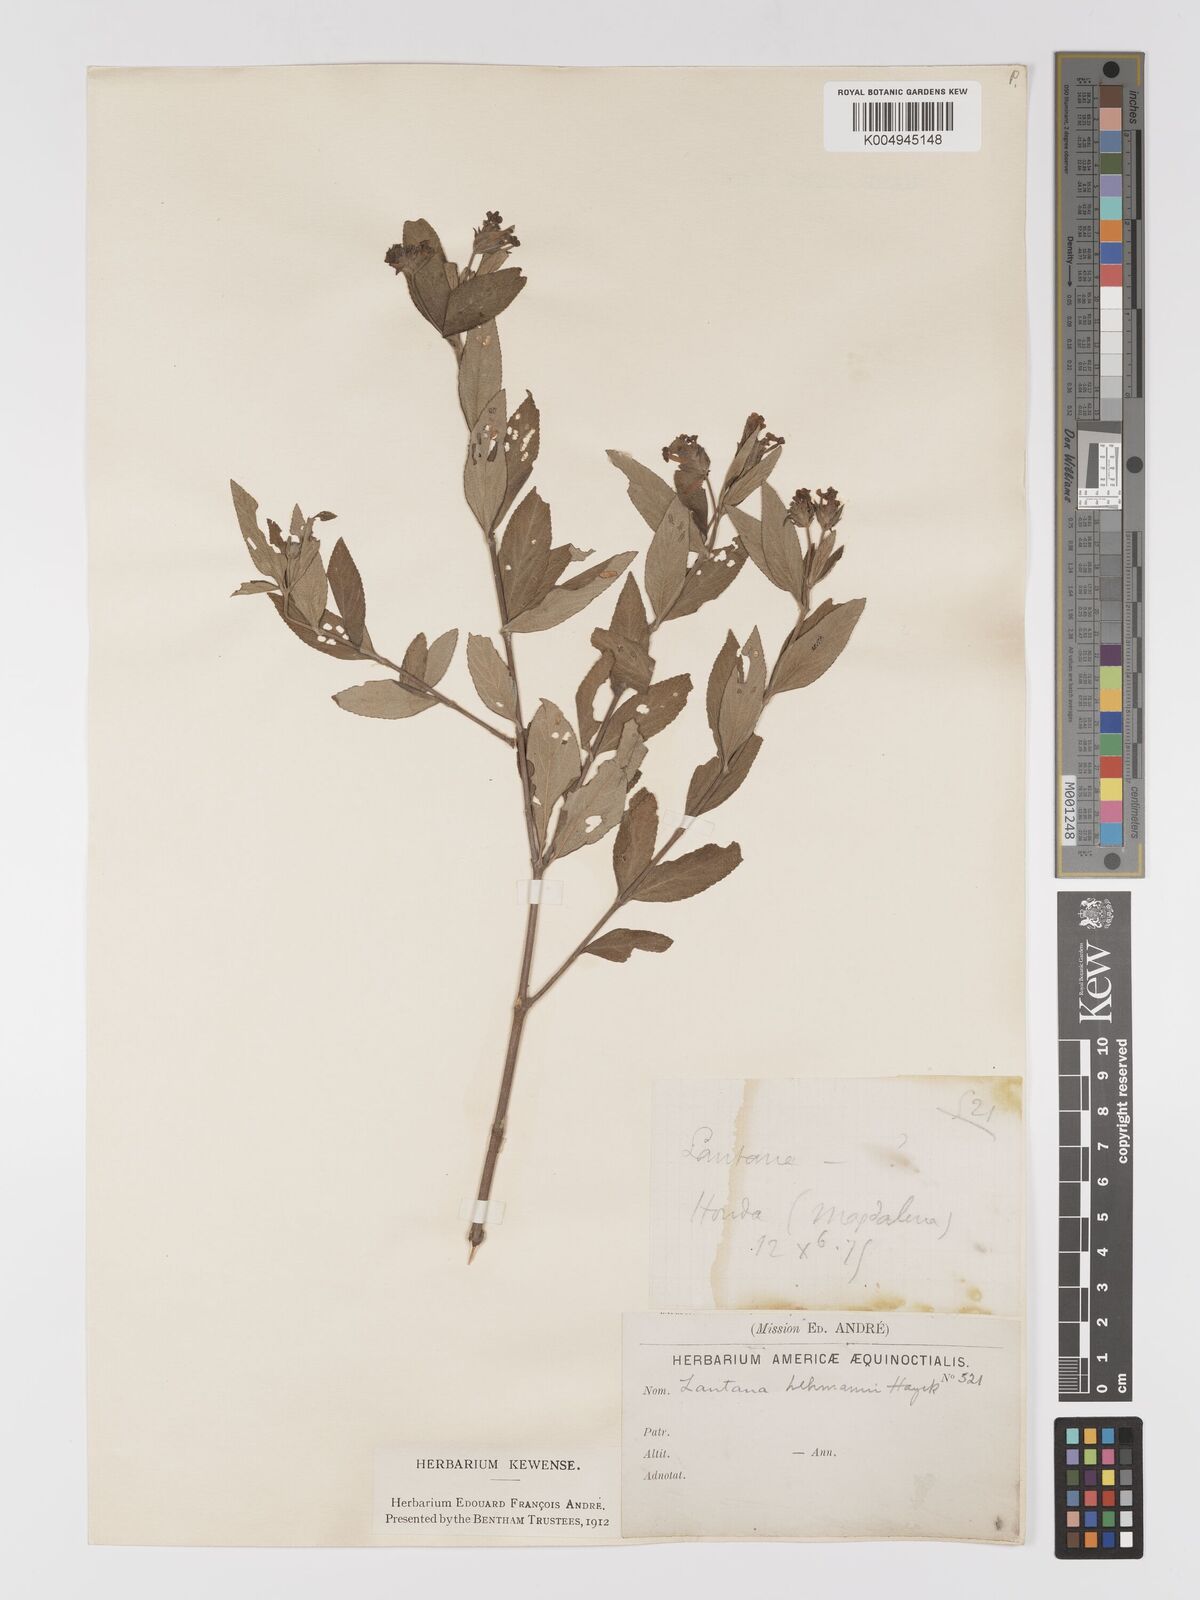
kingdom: Plantae
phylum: Tracheophyta
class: Magnoliopsida
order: Lamiales
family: Verbenaceae
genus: Lantana
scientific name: Lantana salicifolia
